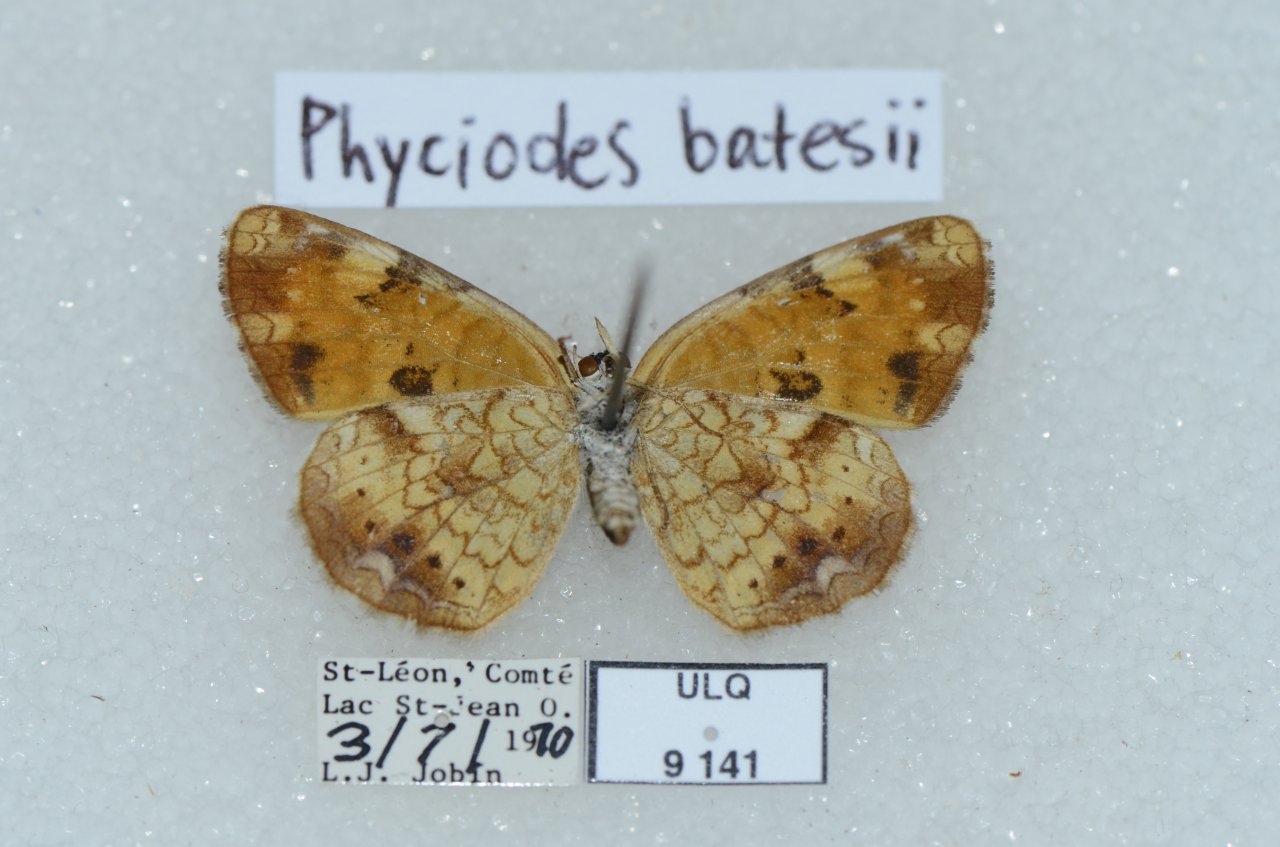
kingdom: Animalia
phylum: Arthropoda
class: Insecta
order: Lepidoptera
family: Nymphalidae
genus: Phyciodes
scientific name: Phyciodes tharos
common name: Northern Crescent
